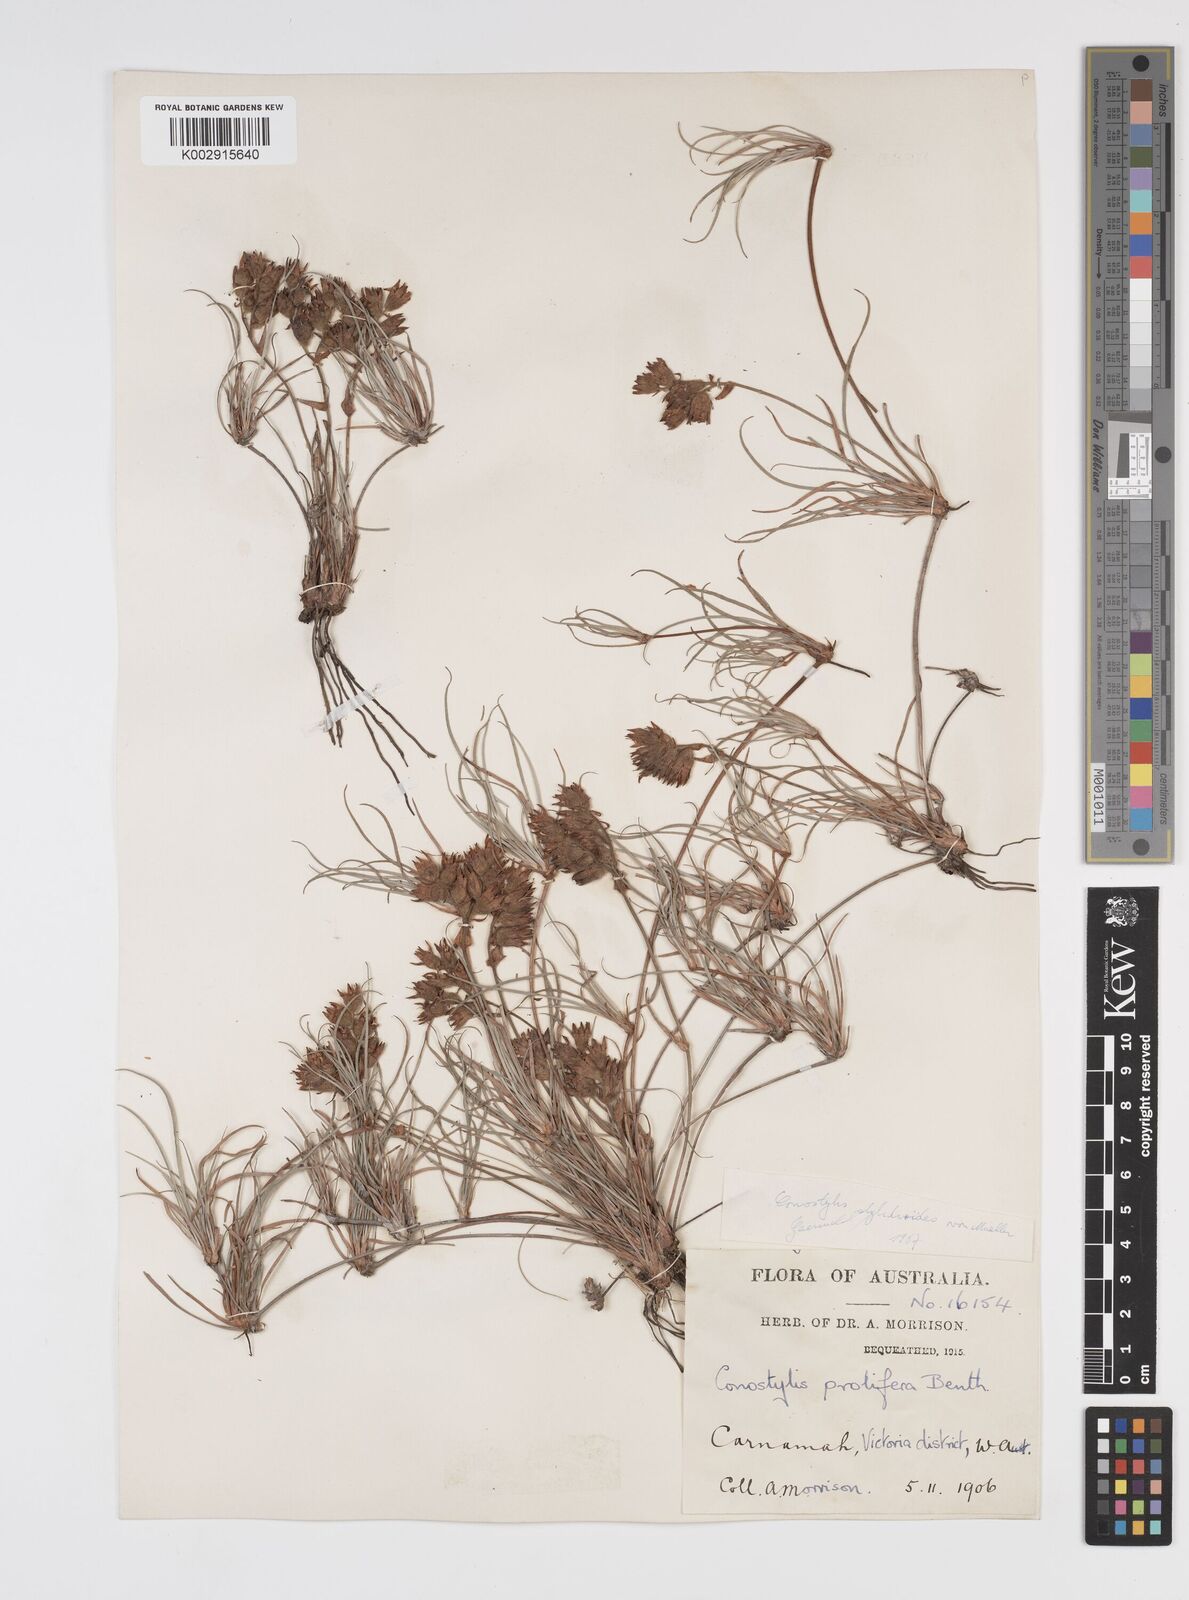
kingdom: Plantae
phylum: Tracheophyta
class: Liliopsida
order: Commelinales
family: Haemodoraceae
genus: Conostylis
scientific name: Conostylis stylidioides
